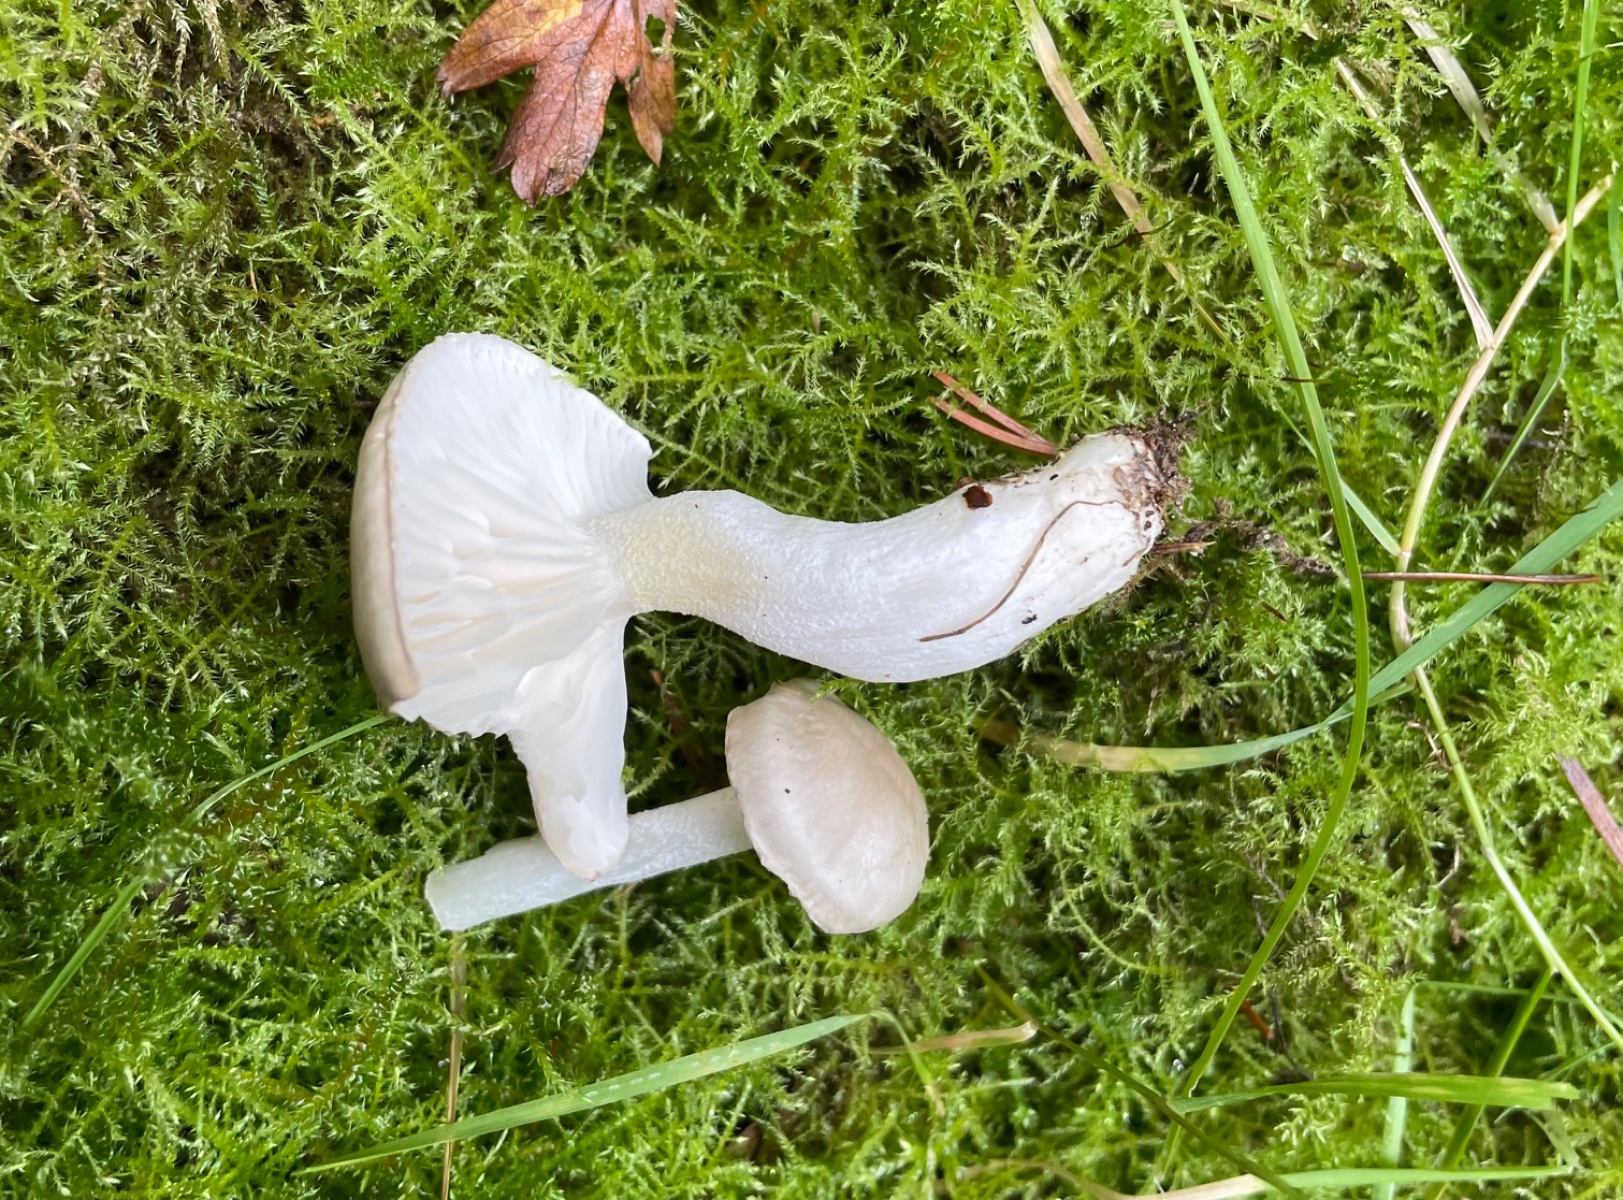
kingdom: Fungi
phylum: Basidiomycota
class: Agaricomycetes
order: Agaricales
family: Hygrophoraceae
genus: Hygrophorus
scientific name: Hygrophorus agathosmus
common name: vellugtende sneglehat
